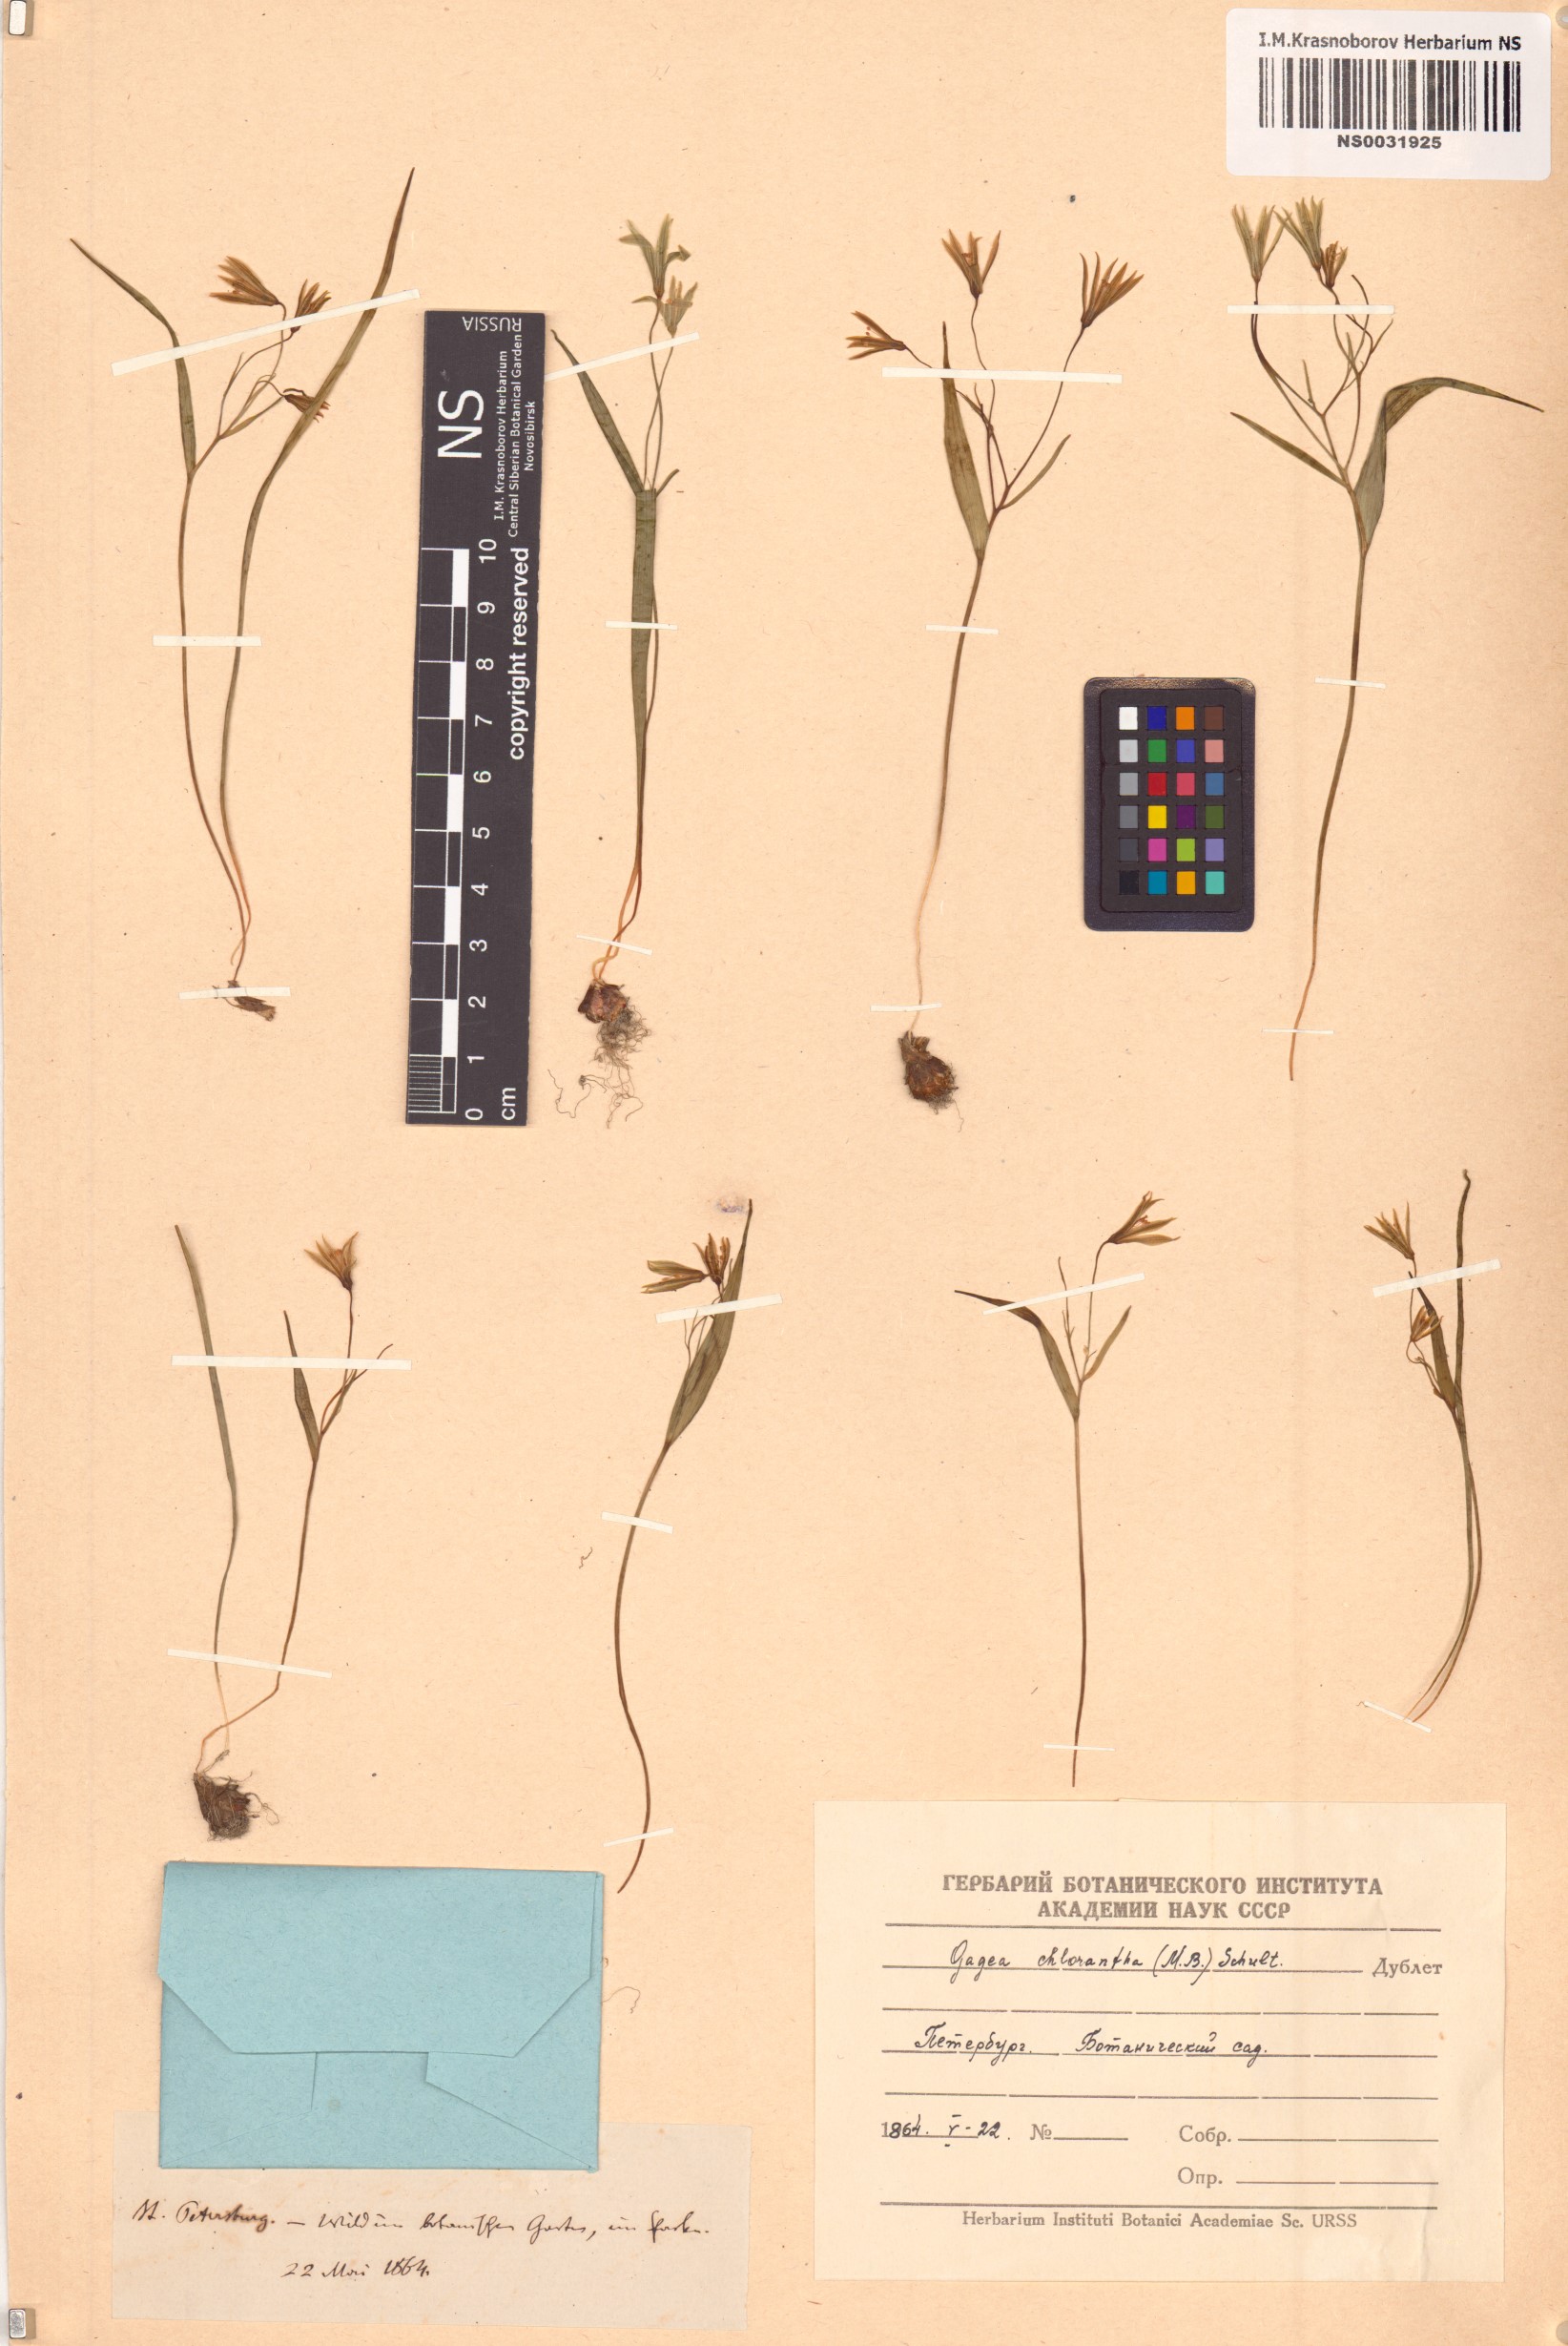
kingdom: Plantae
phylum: Tracheophyta
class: Liliopsida
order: Liliales
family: Liliaceae
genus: Gagea
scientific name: Gagea chlorantha
